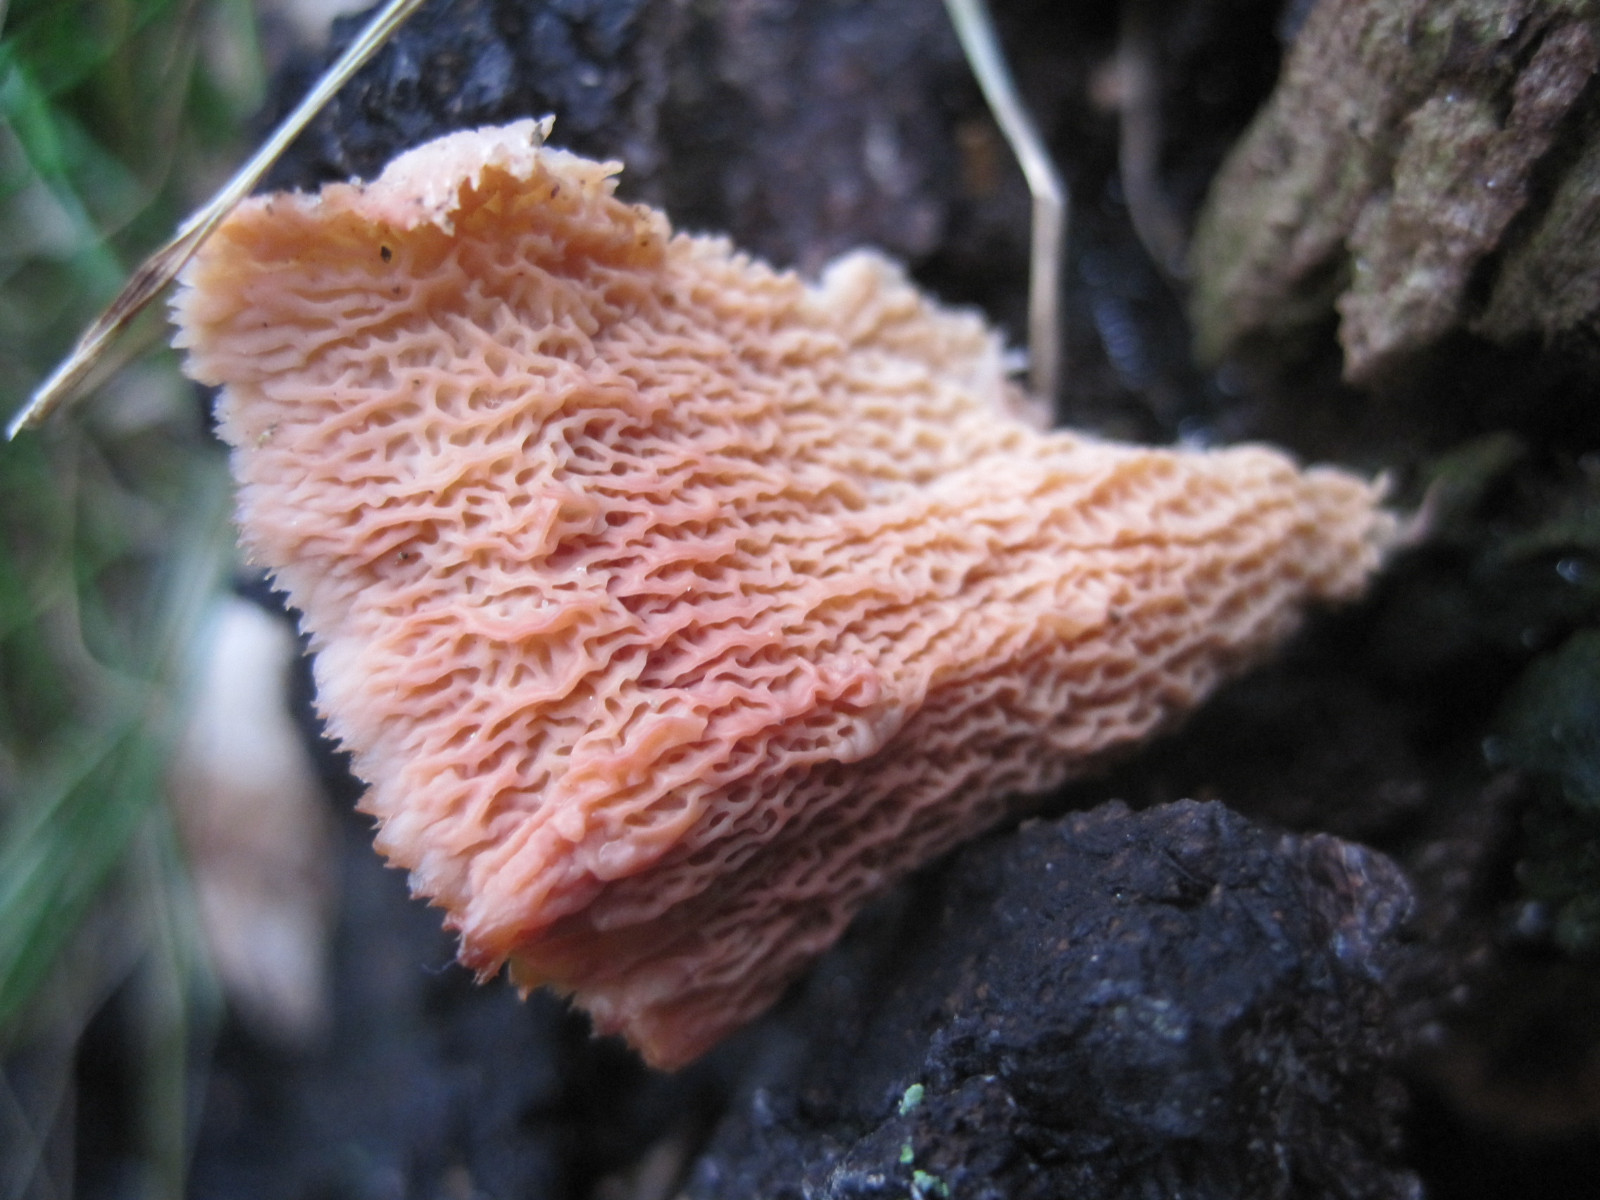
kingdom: Fungi
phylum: Basidiomycota
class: Agaricomycetes
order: Polyporales
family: Meruliaceae
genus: Phlebia
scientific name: Phlebia tremellosa
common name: bævrende åresvamp
